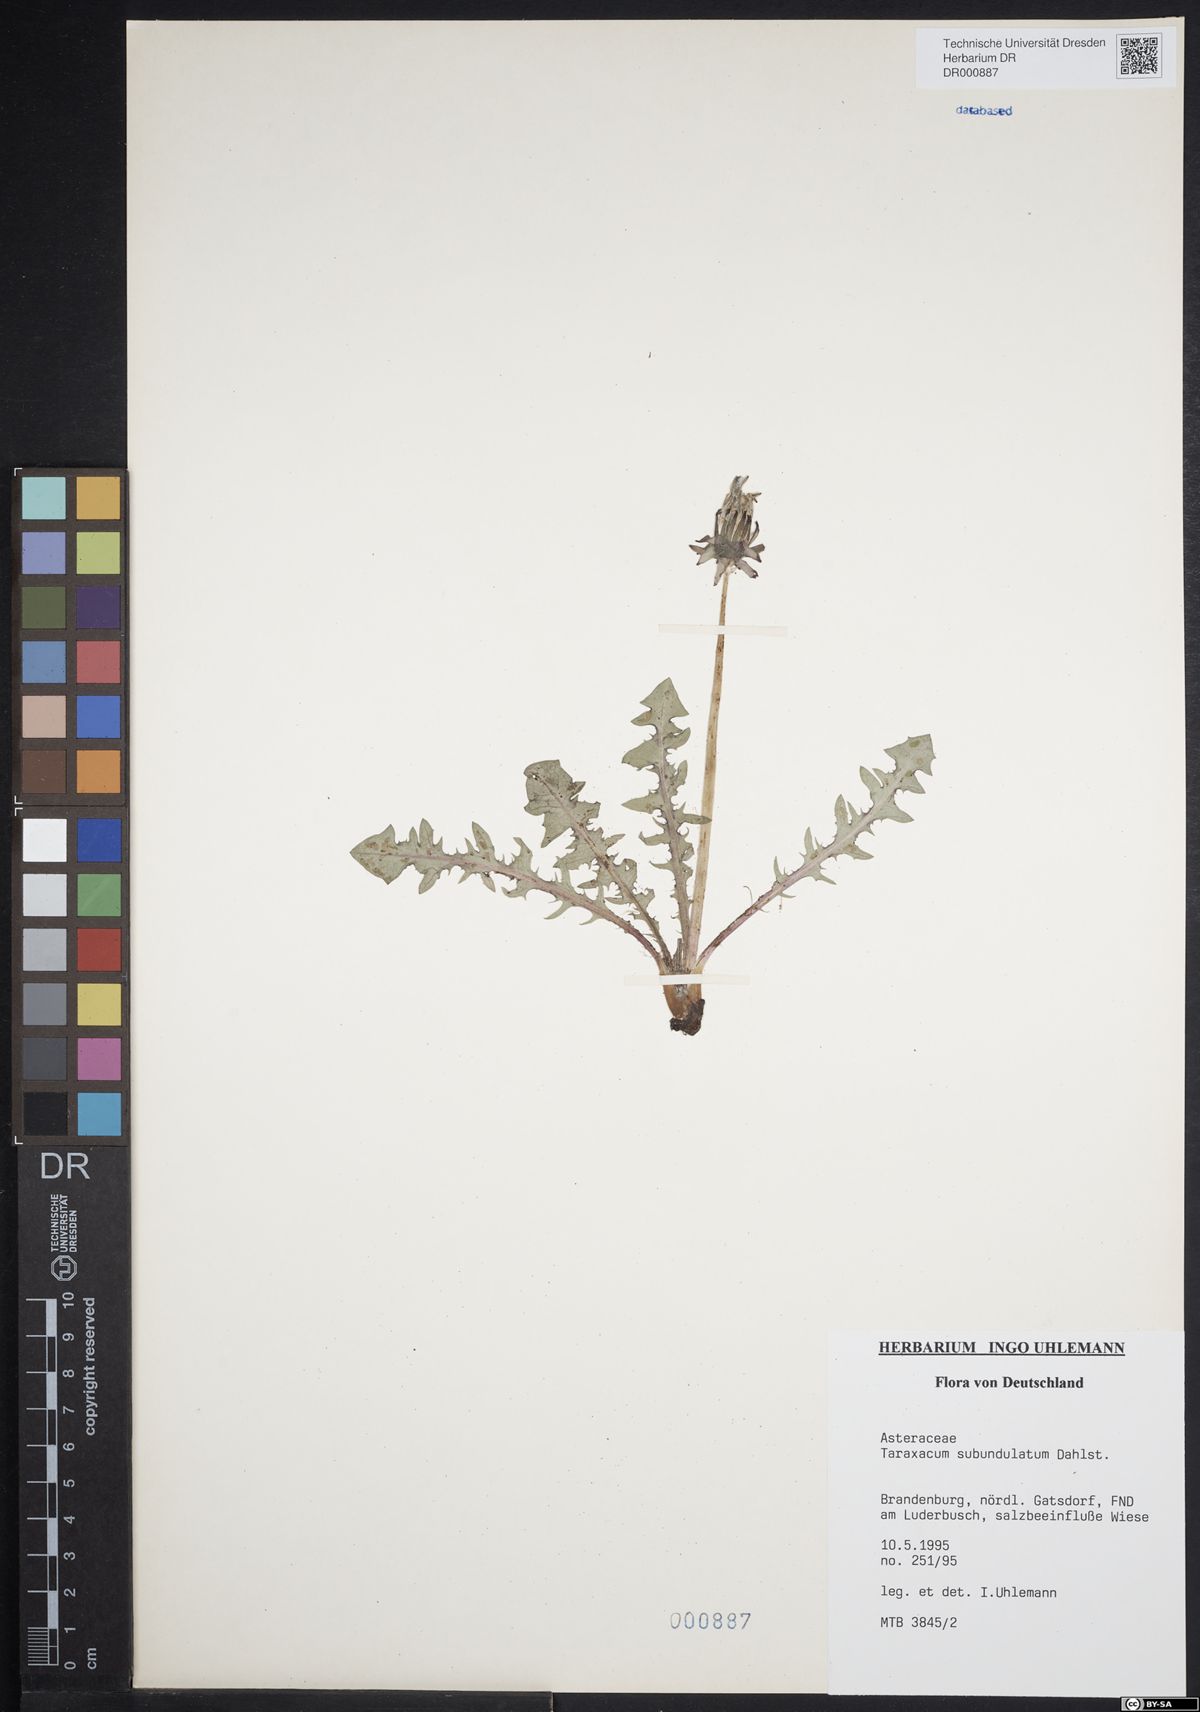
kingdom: Plantae
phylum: Tracheophyta
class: Magnoliopsida
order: Asterales
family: Asteraceae
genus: Taraxacum
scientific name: Taraxacum subundulatum
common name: Complex-leaved dandelion
